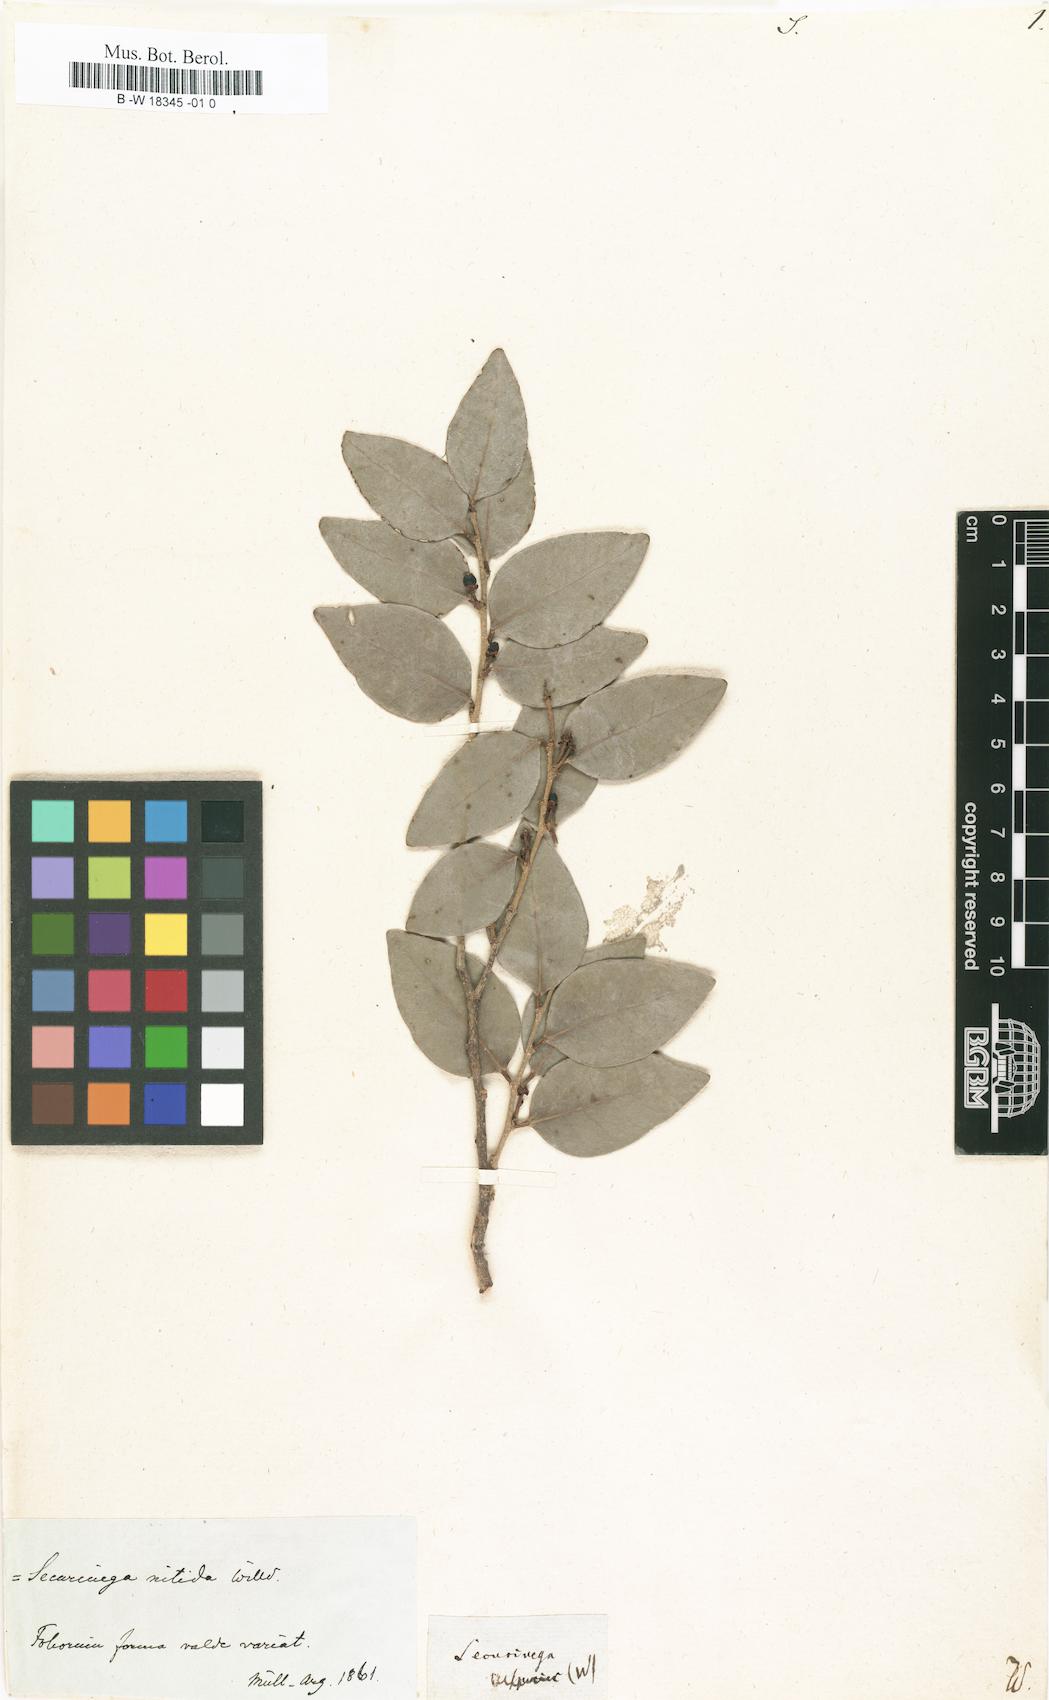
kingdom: Plantae
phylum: Tracheophyta
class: Magnoliopsida
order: Malpighiales
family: Phyllanthaceae
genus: Securinega
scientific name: Securinega
